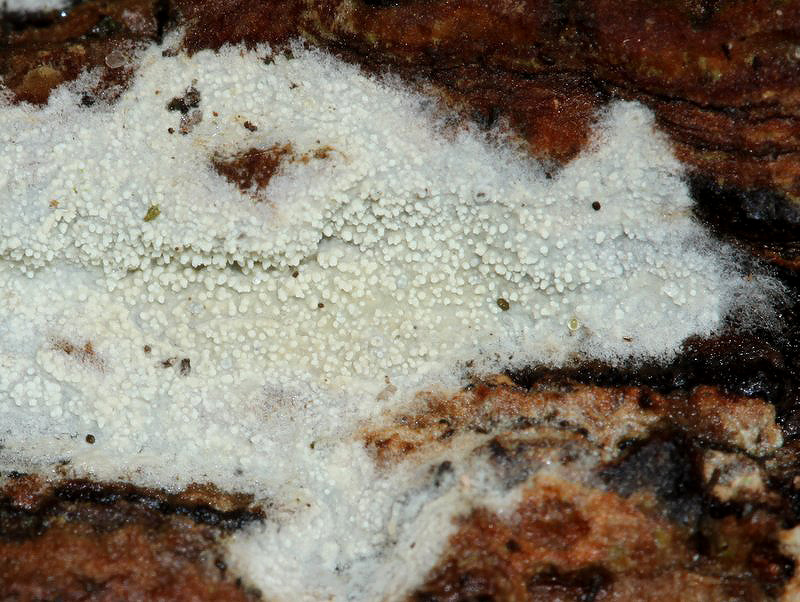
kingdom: Fungi
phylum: Basidiomycota
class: Agaricomycetes
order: Trechisporales
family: Hydnodontaceae
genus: Brevicellicium
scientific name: Brevicellicium olivascens
